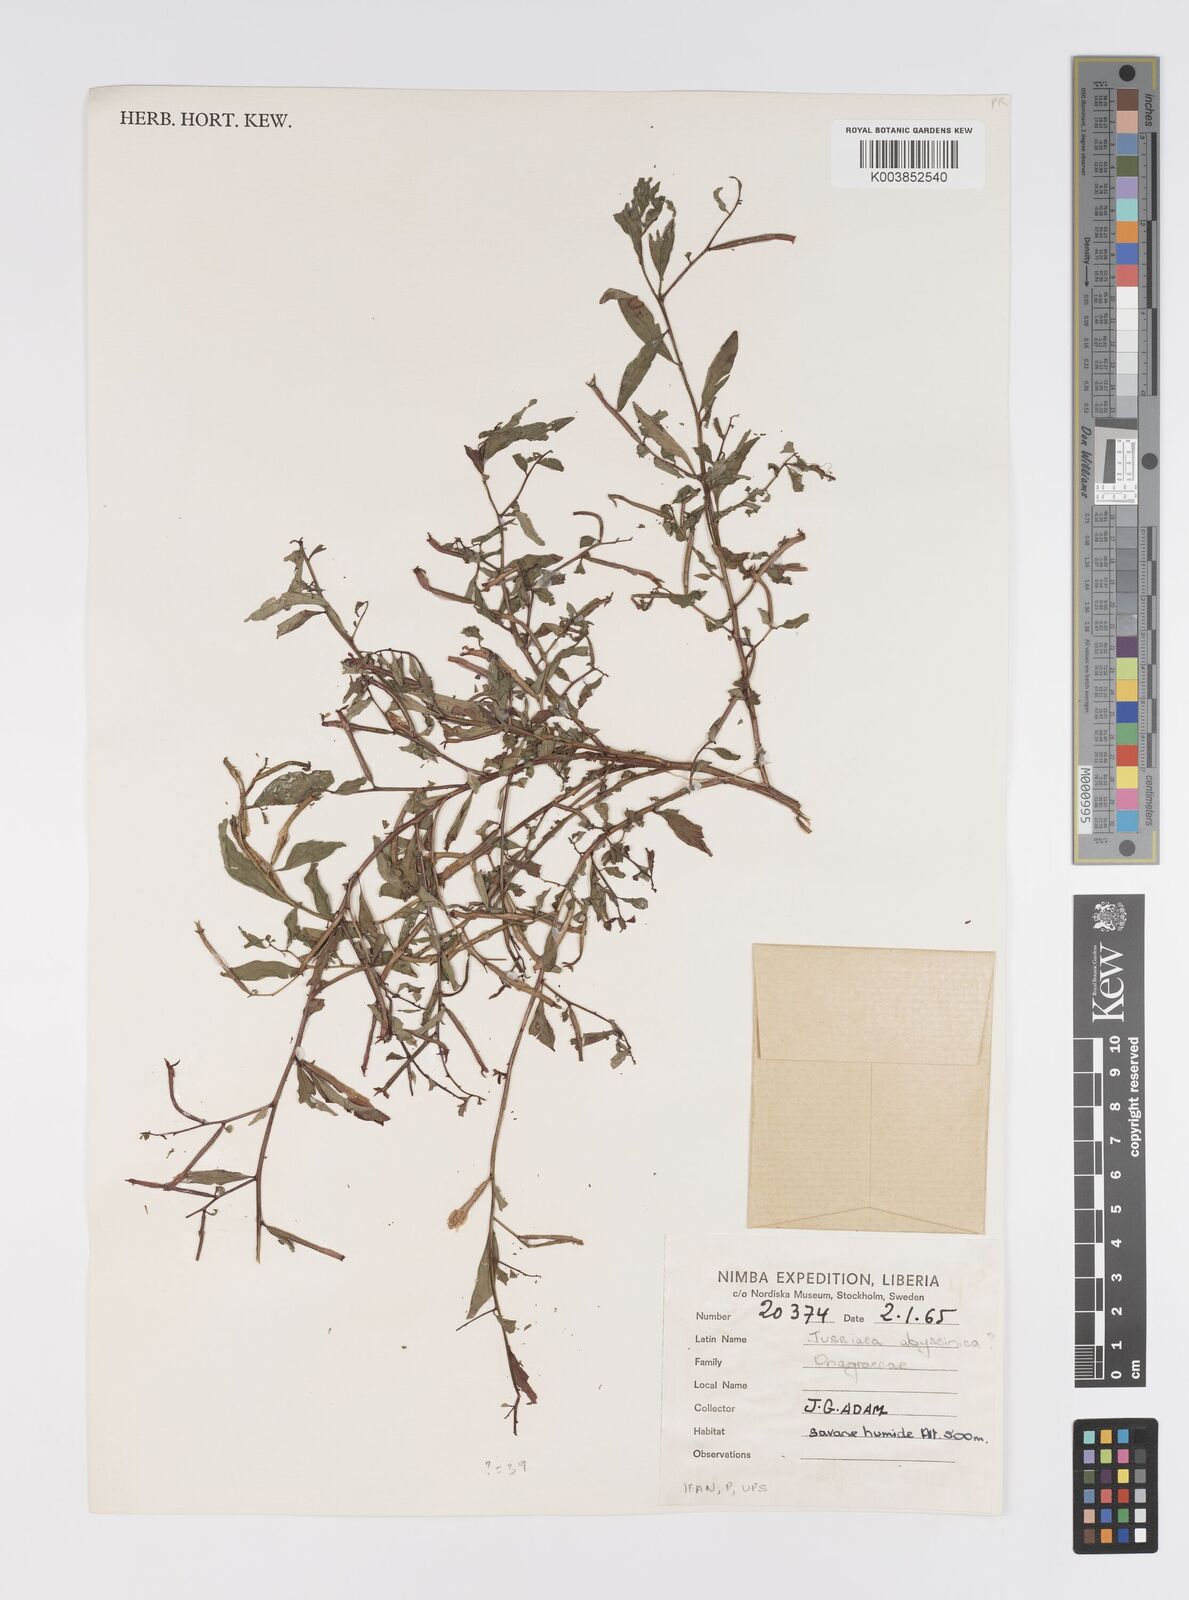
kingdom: Plantae
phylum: Tracheophyta
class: Magnoliopsida
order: Myrtales
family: Onagraceae
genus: Ludwigia
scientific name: Ludwigia abyssinica
